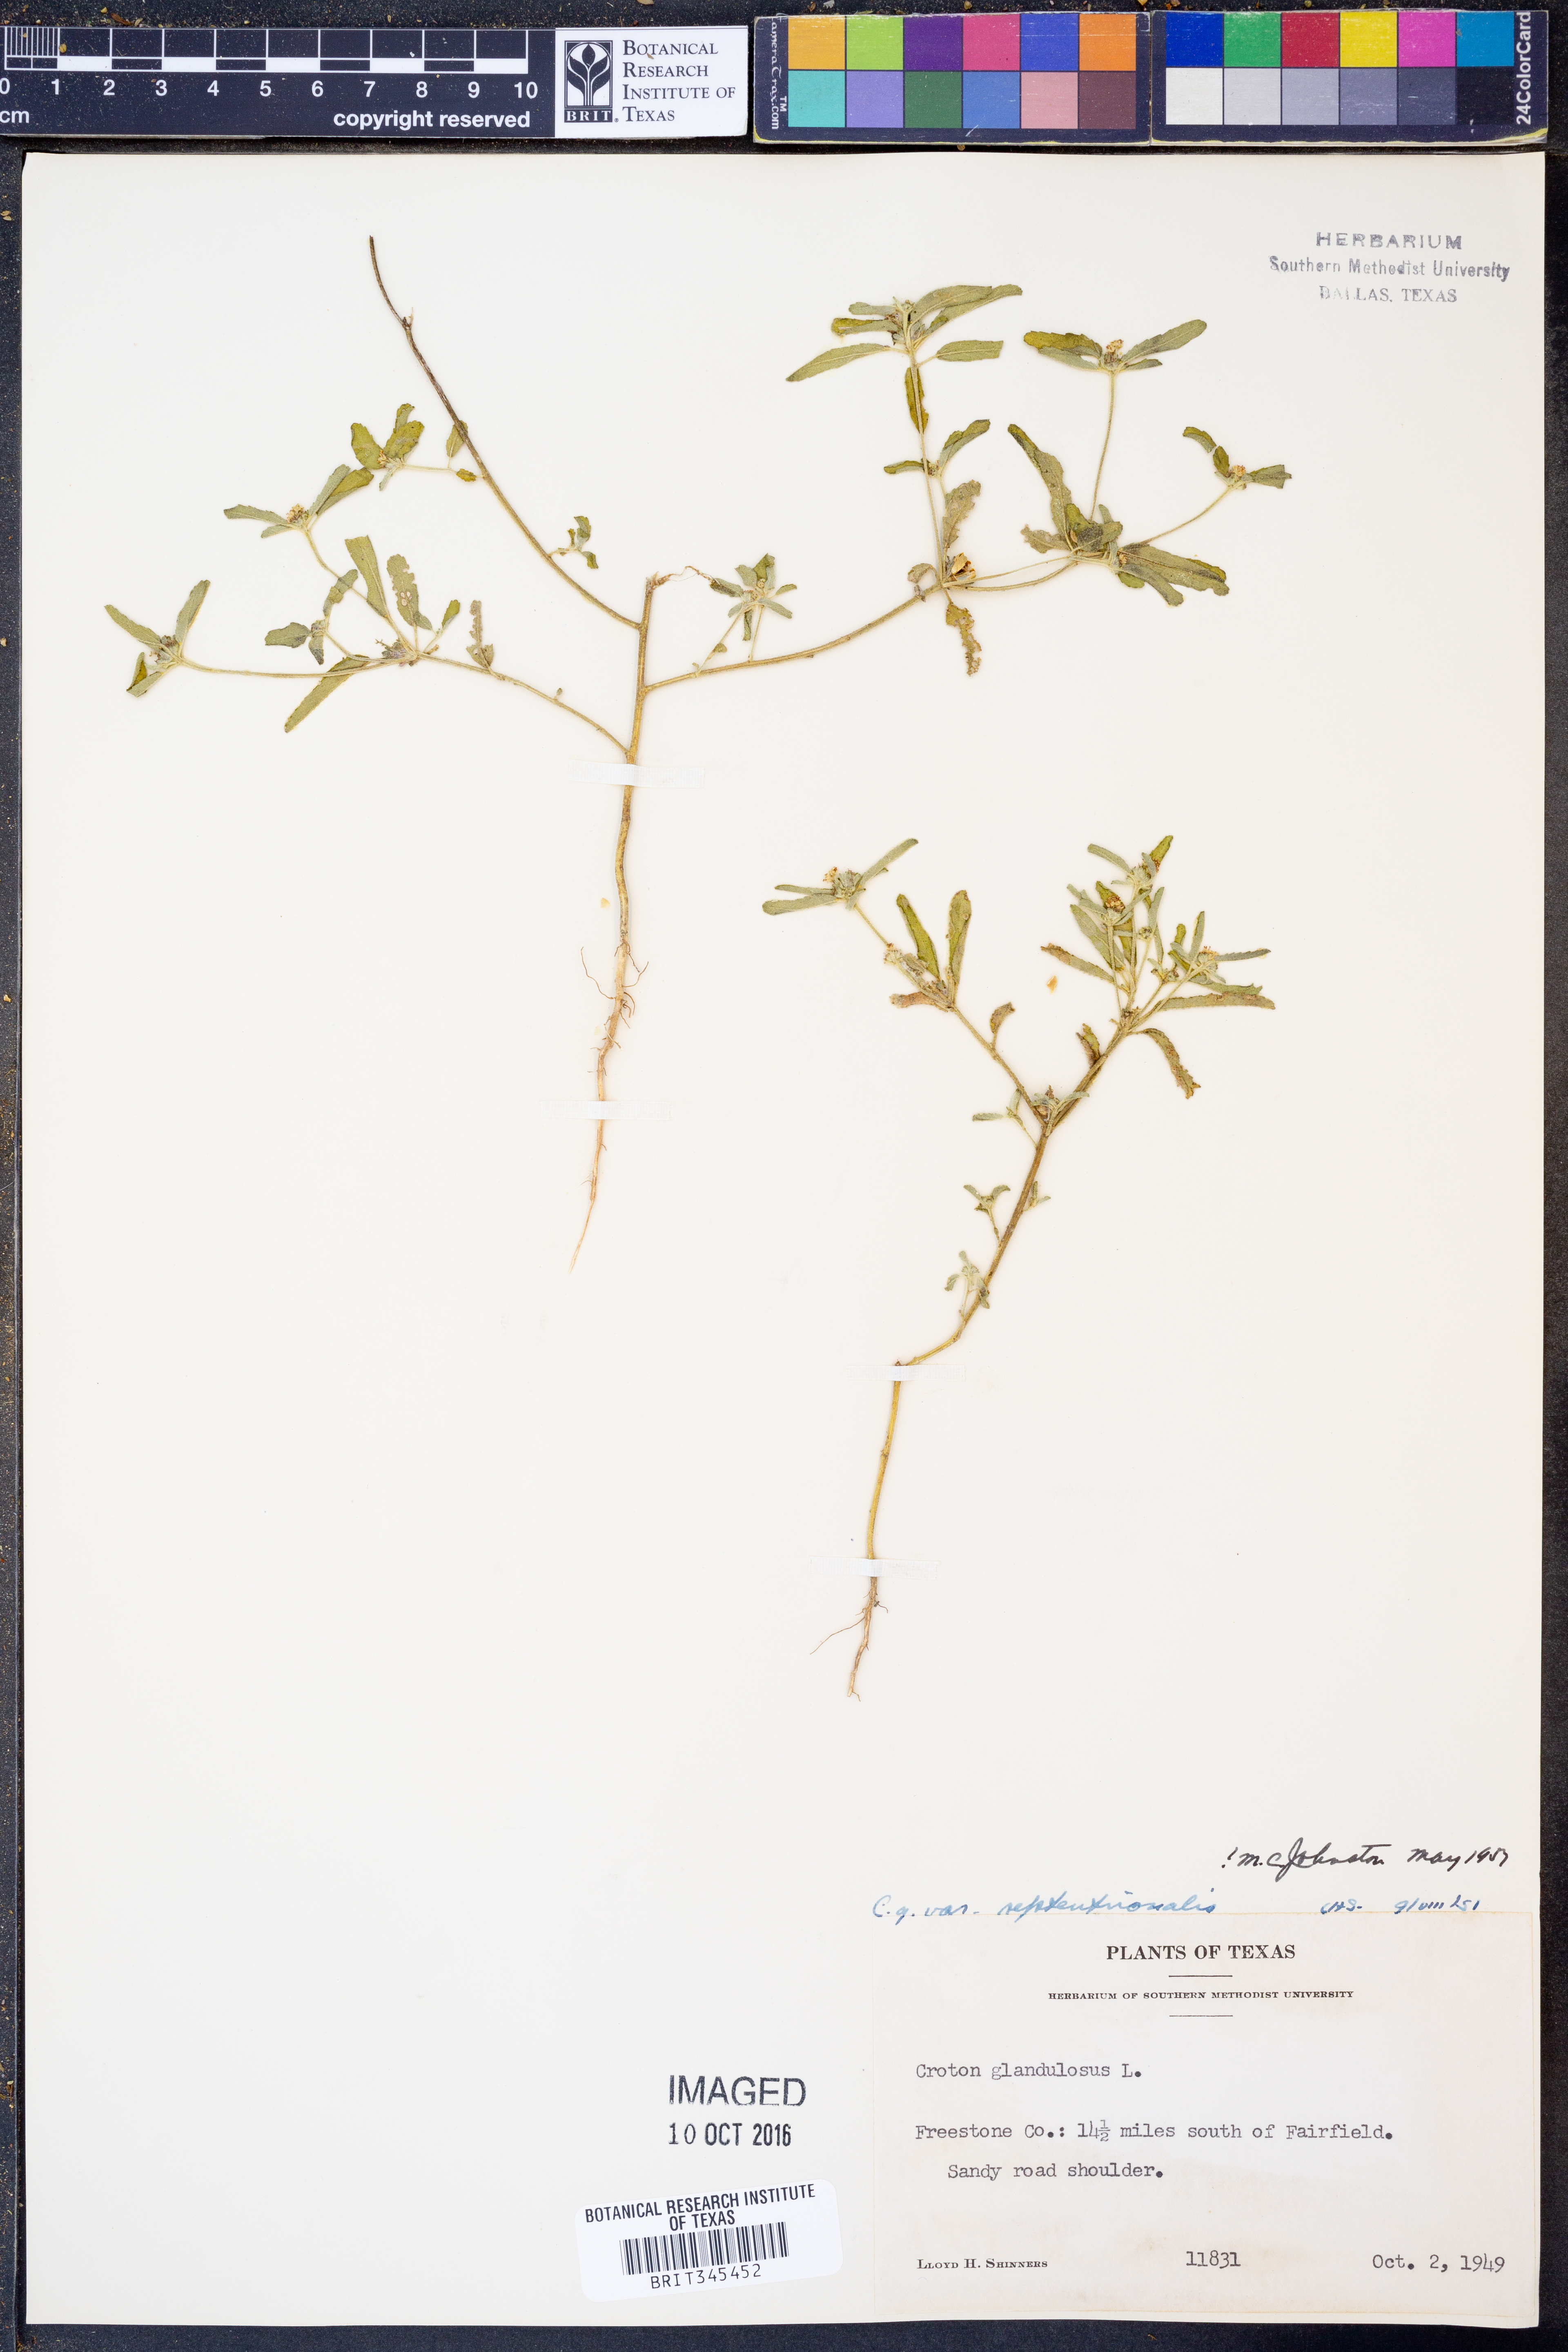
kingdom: Plantae
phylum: Tracheophyta
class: Magnoliopsida
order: Malpighiales
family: Euphorbiaceae
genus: Croton
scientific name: Croton glandulosus
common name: Tropic croton
